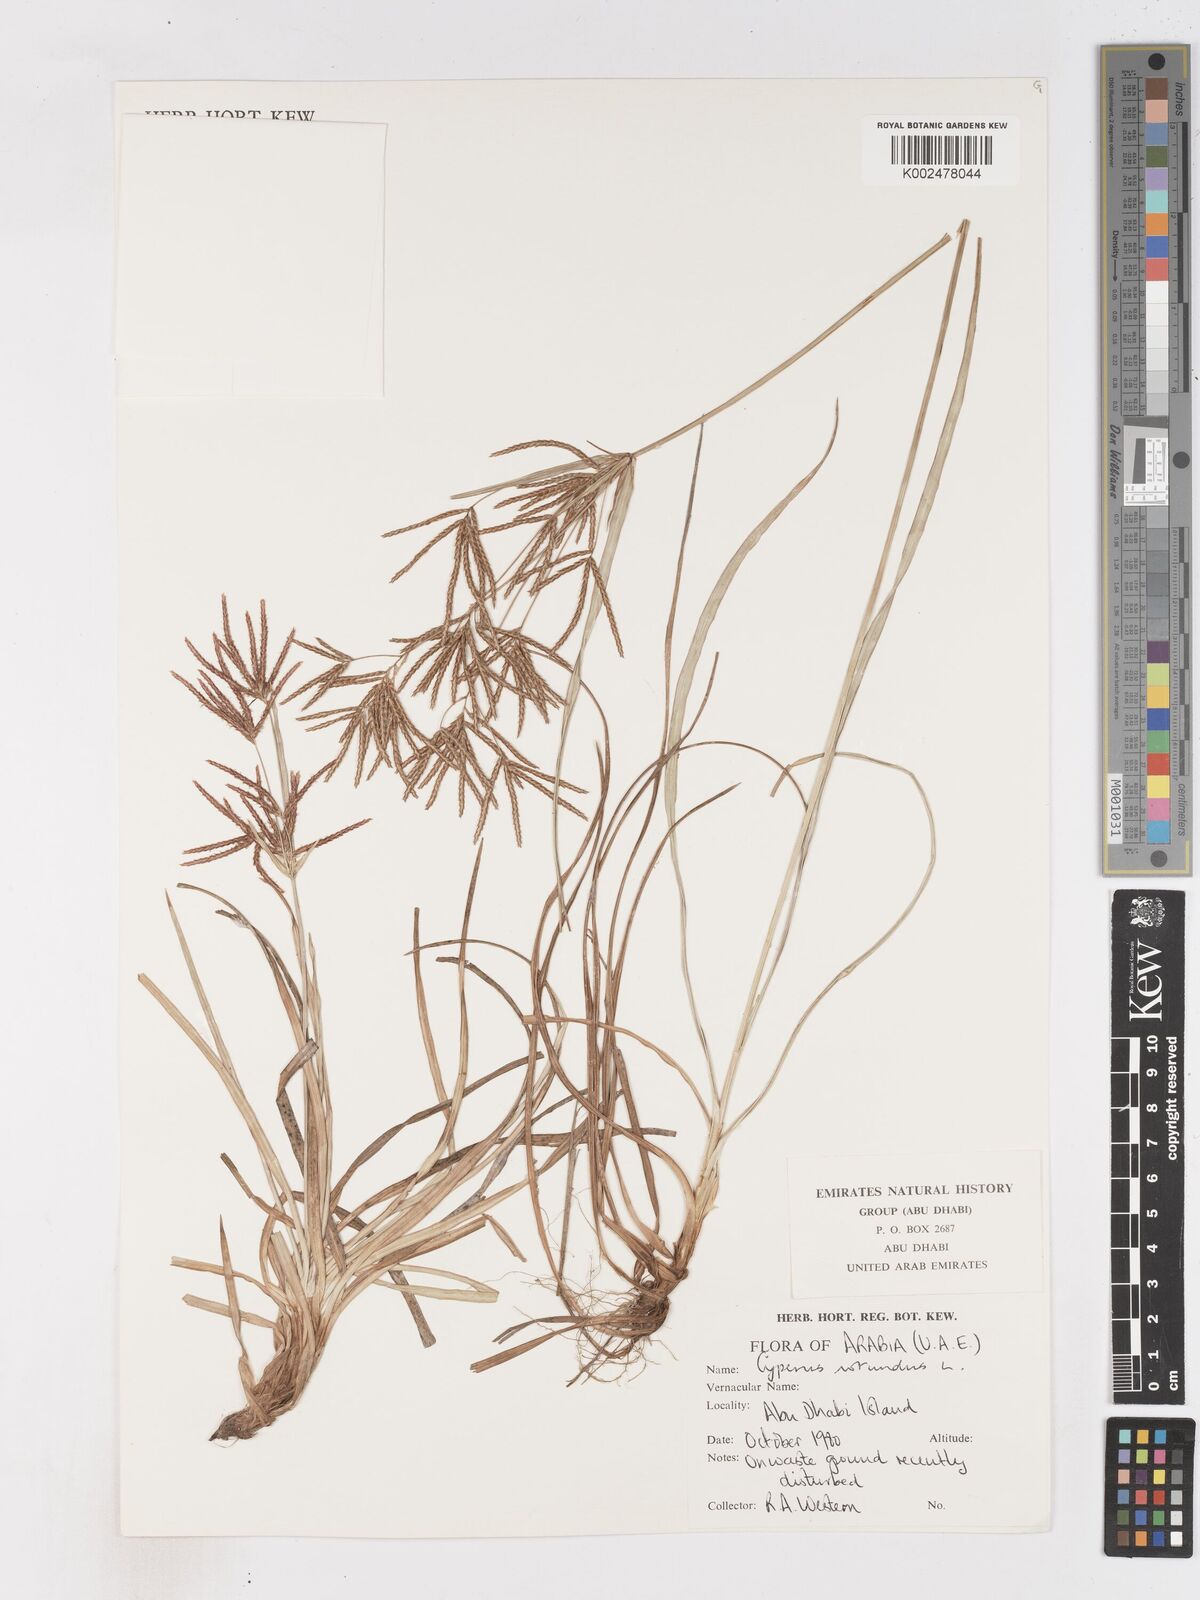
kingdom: Plantae
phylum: Tracheophyta
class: Liliopsida
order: Poales
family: Cyperaceae
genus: Cyperus
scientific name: Cyperus rotundus
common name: Nutgrass
